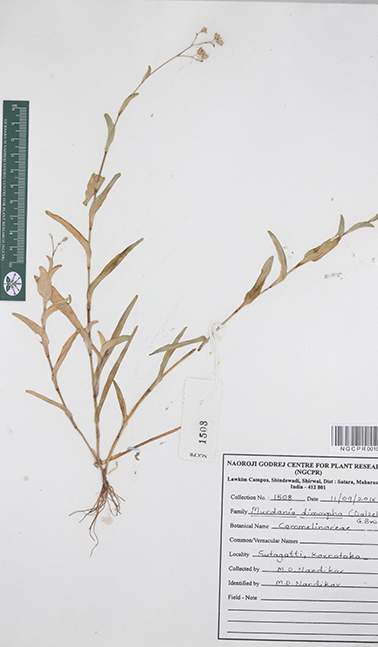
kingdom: Plantae
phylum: Tracheophyta
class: Liliopsida
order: Commelinales
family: Commelinaceae
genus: Murdannia
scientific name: Murdannia dimorpha
